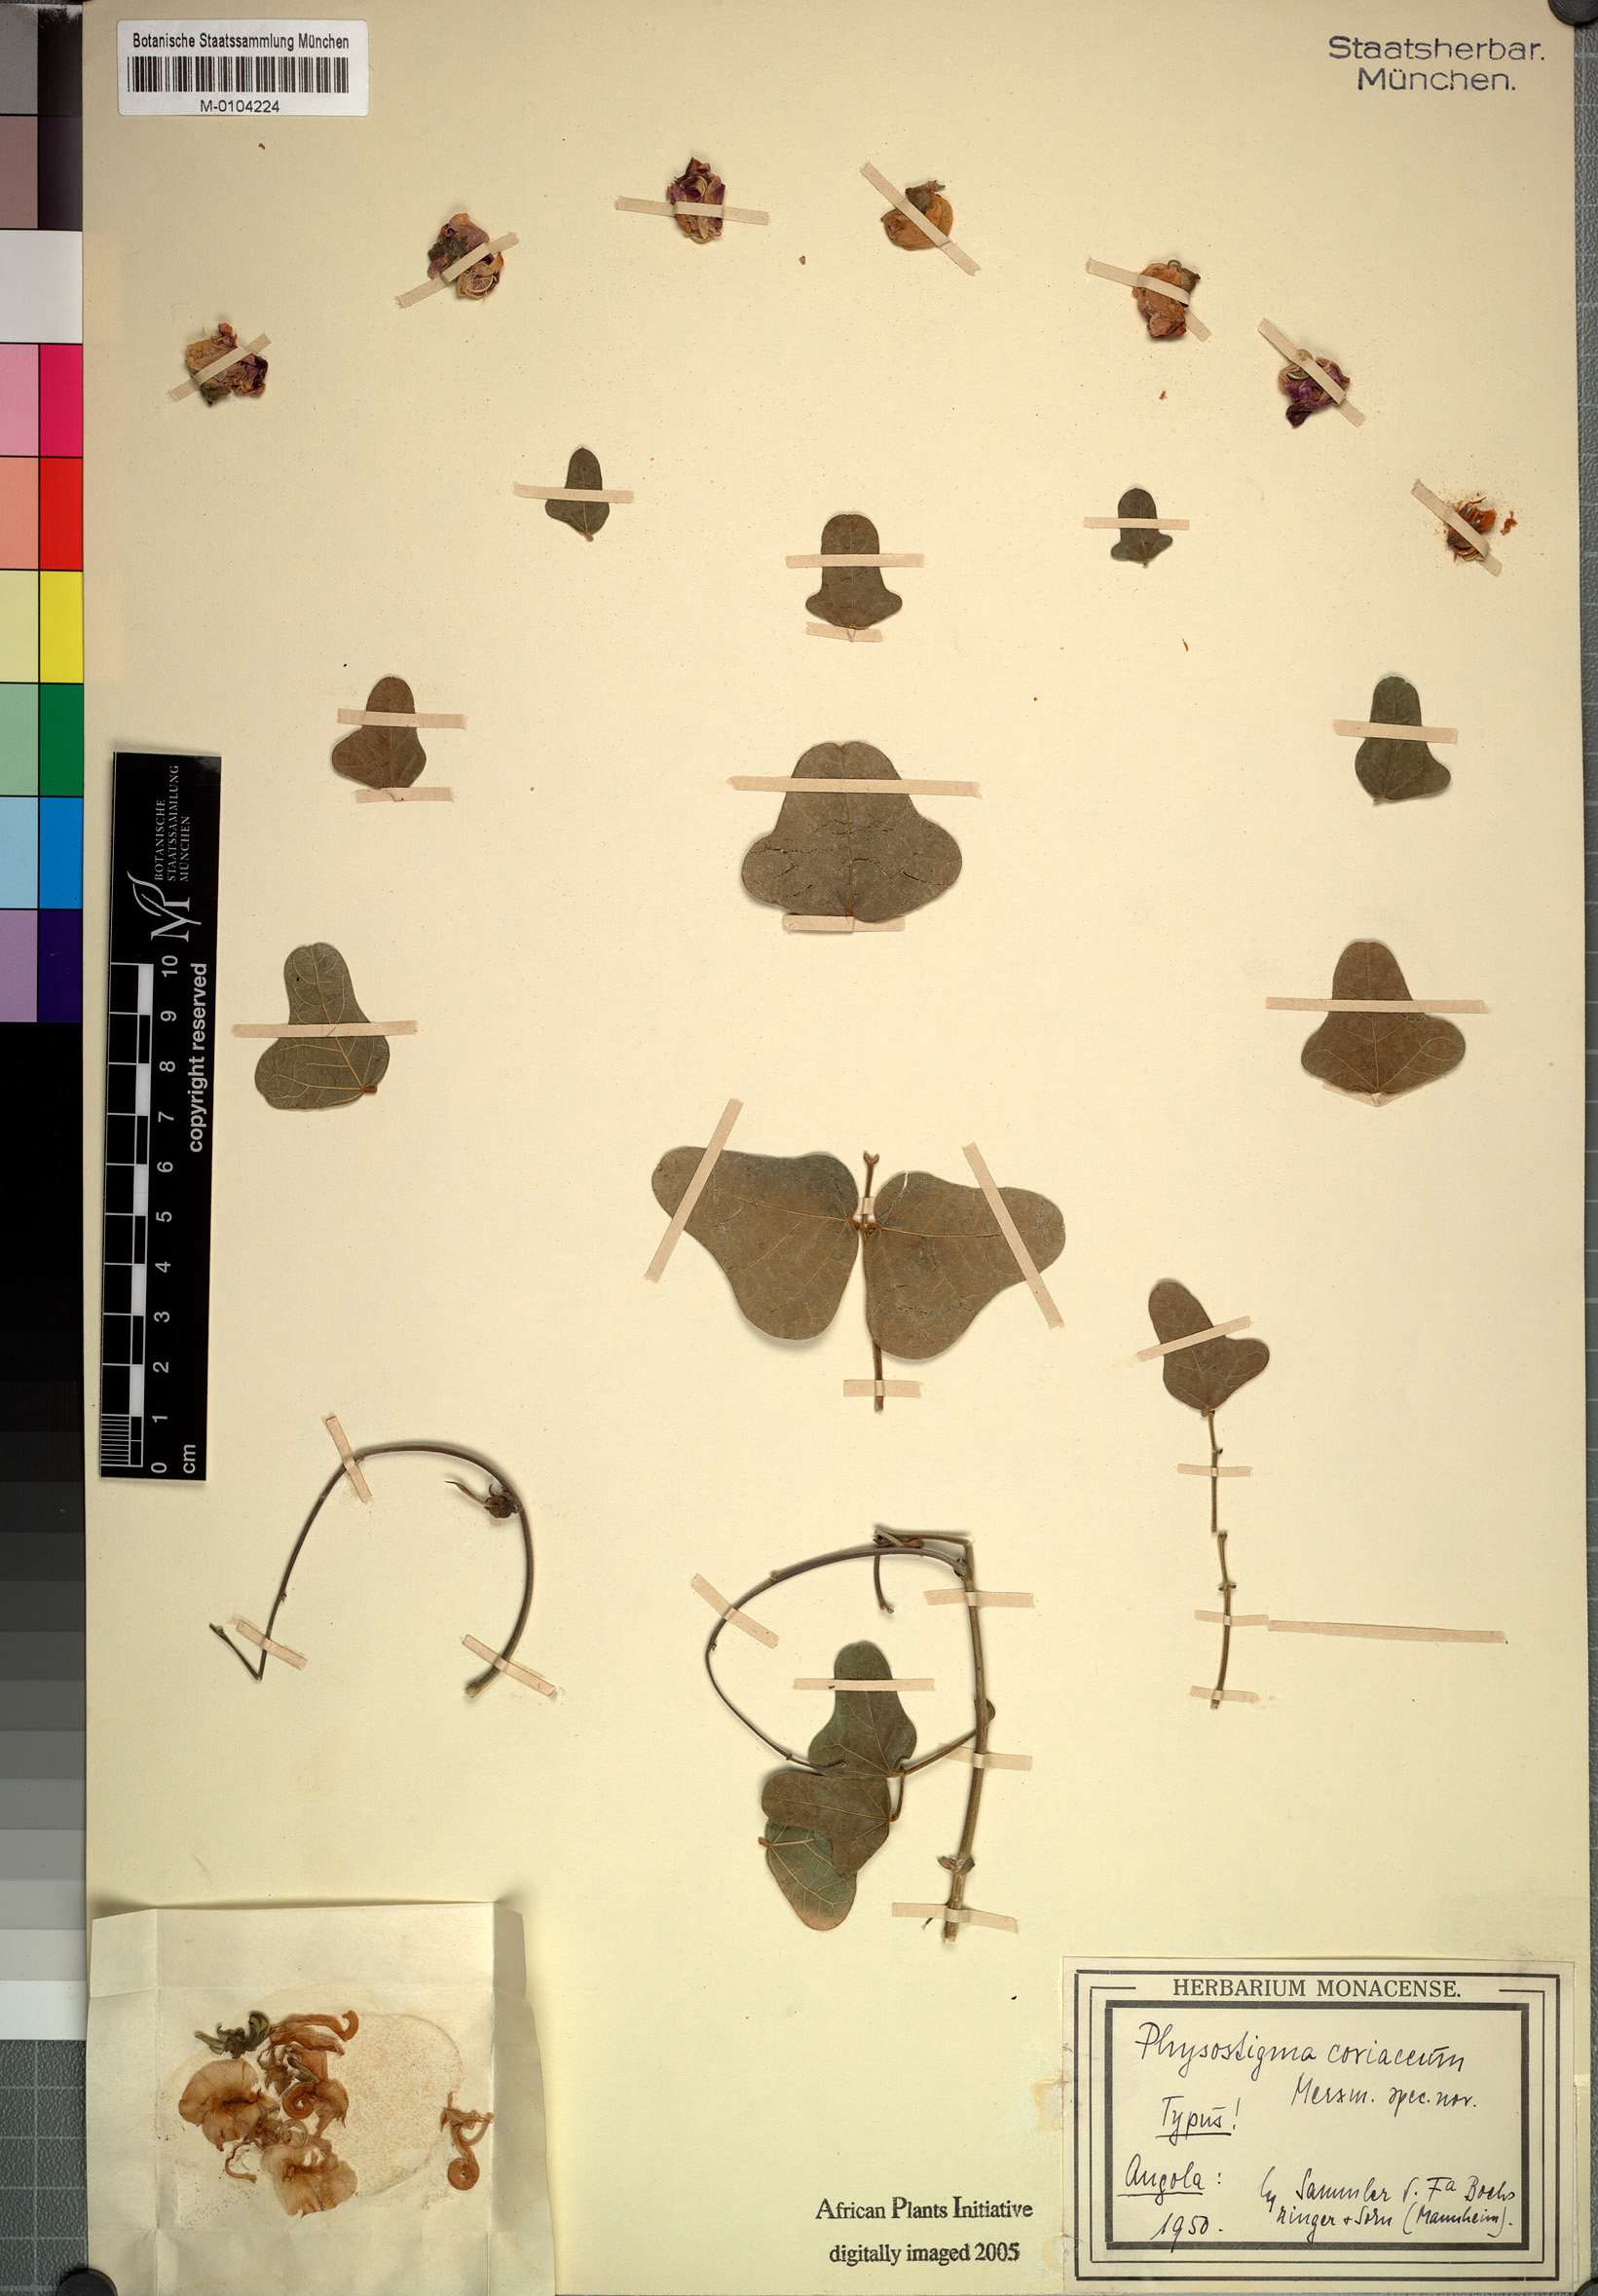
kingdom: Plantae
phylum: Tracheophyta
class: Magnoliopsida
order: Fabales
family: Fabaceae
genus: Physostigma
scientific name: Physostigma coriaceum
